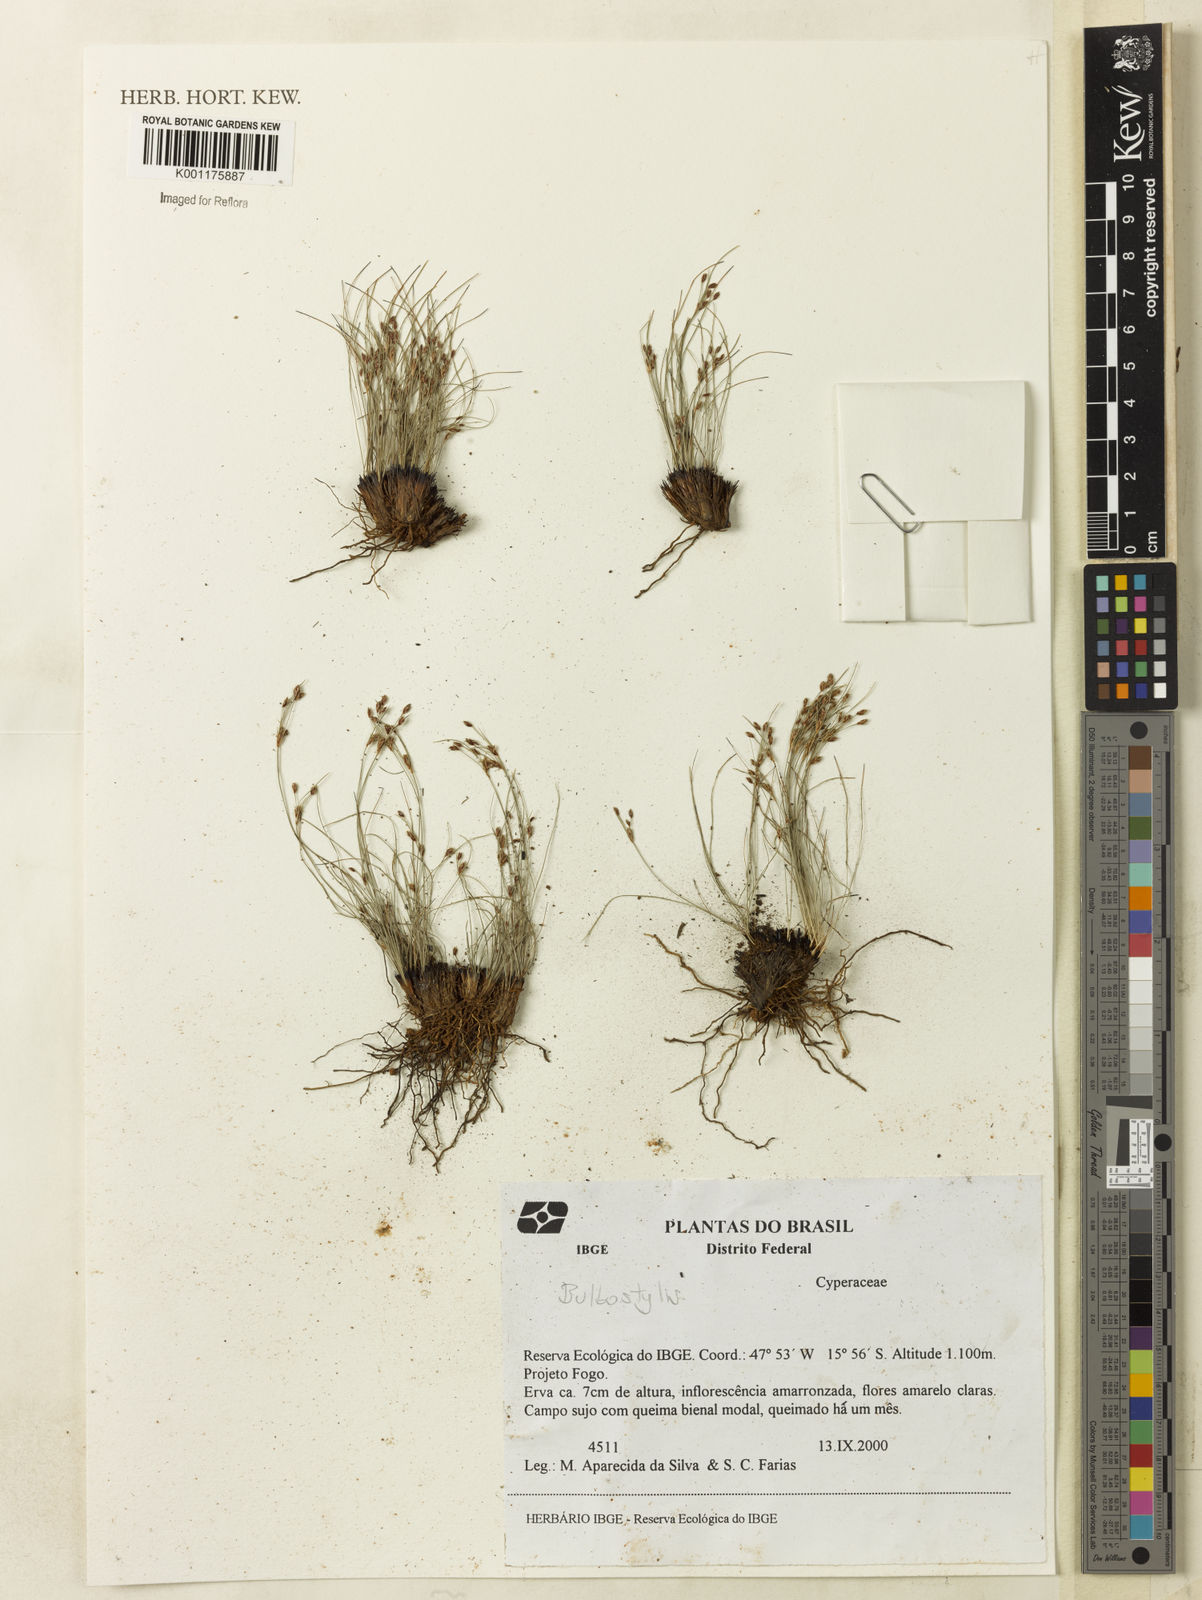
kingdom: Plantae
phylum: Tracheophyta
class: Liliopsida
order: Poales
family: Cyperaceae
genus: Bulbostylis
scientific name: Bulbostylis
